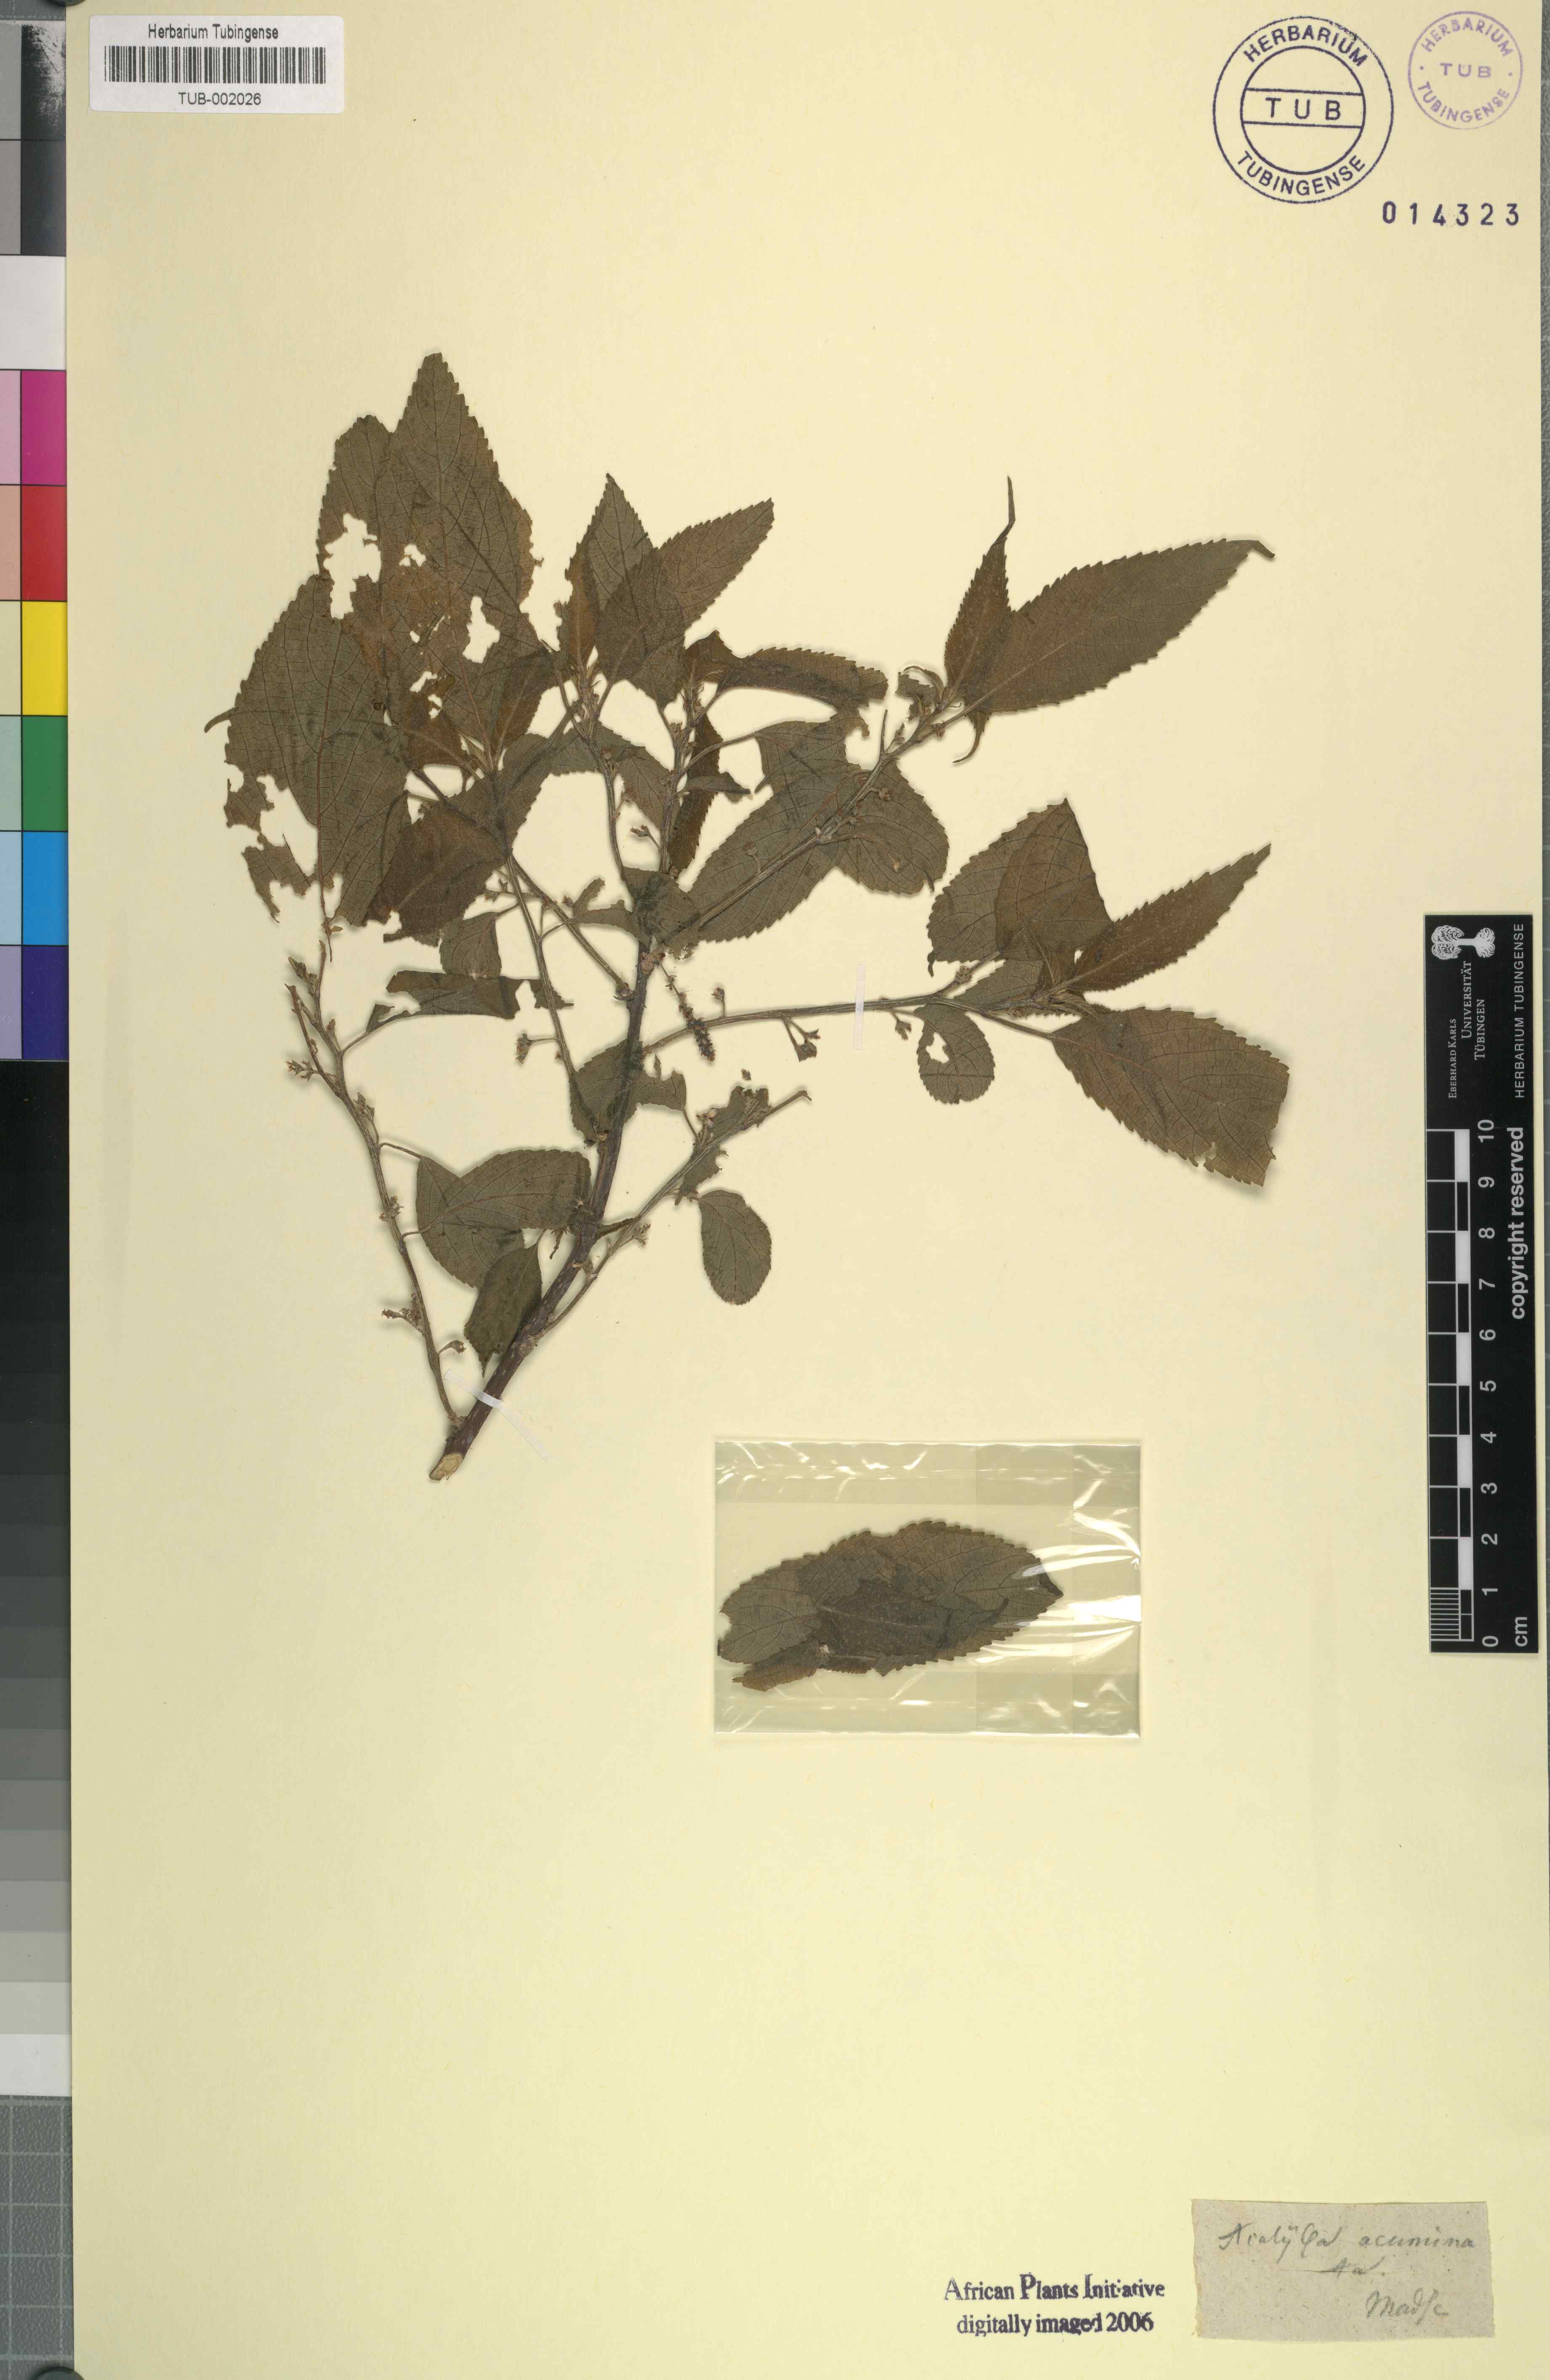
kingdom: Plantae
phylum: Tracheophyta
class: Magnoliopsida
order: Malpighiales
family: Euphorbiaceae
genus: Acalypha
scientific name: Acalypha burmanii
